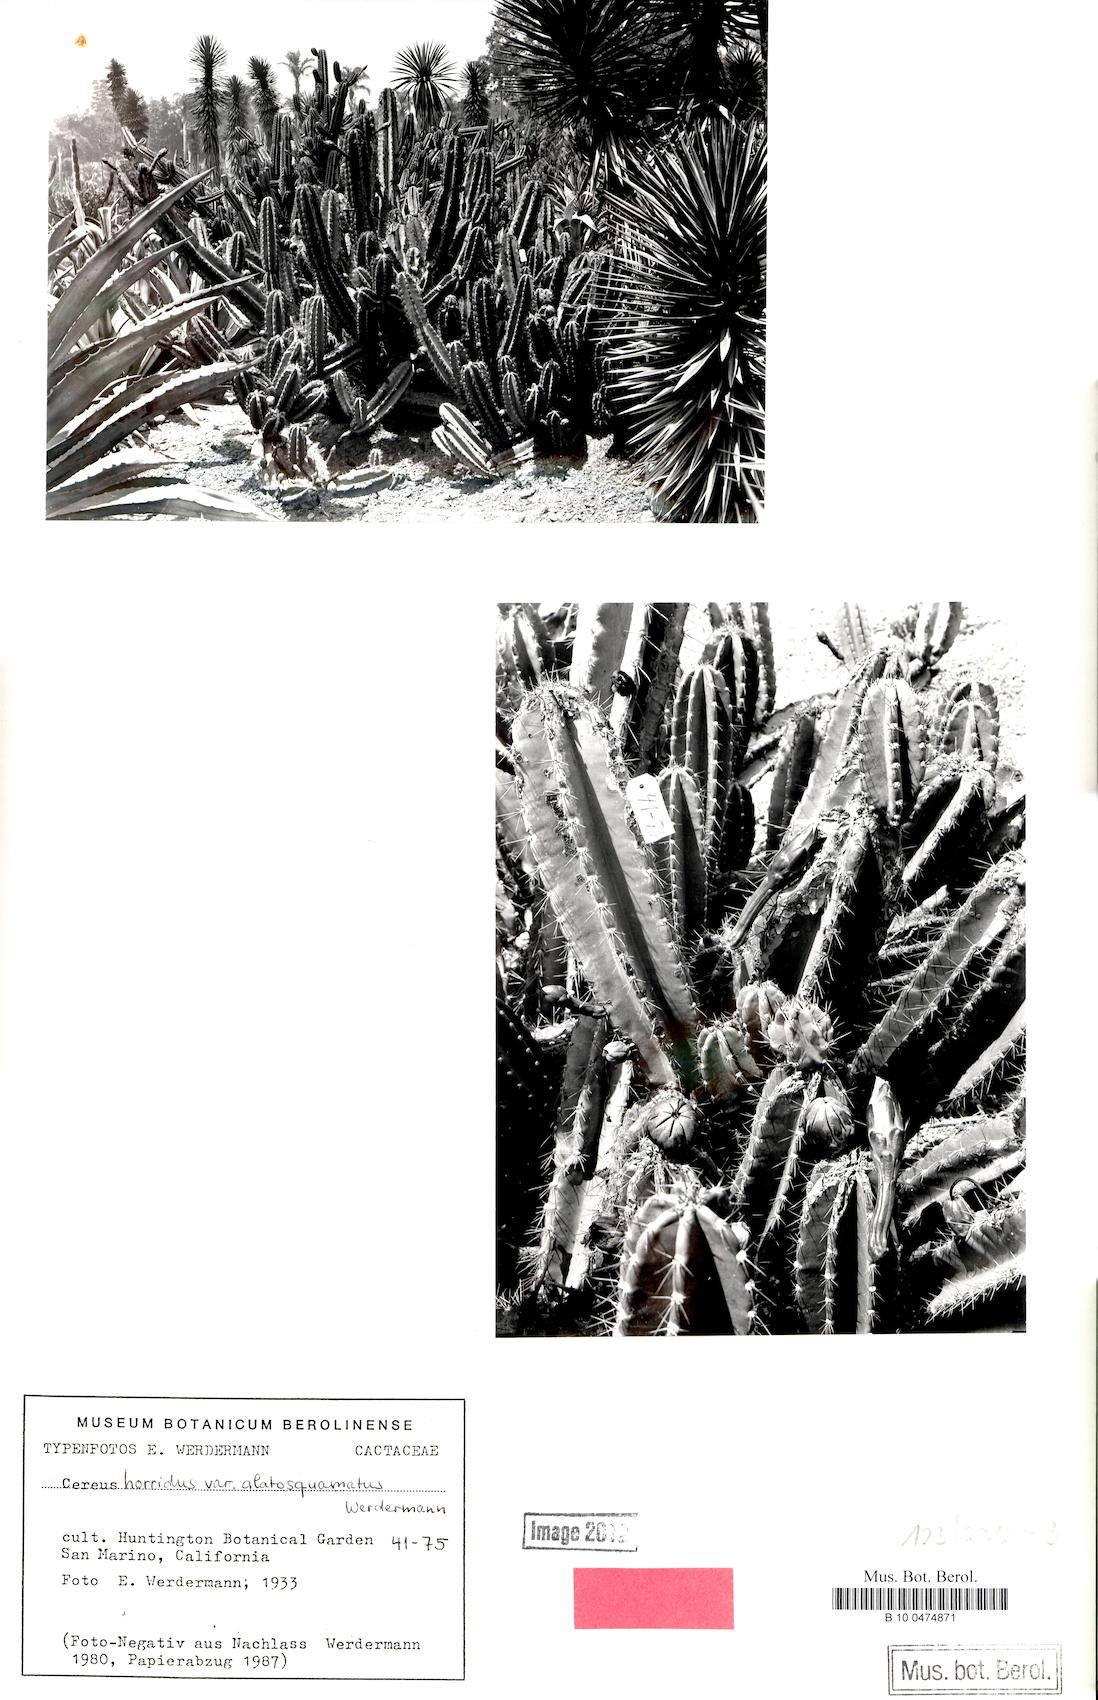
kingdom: Plantae
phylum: Tracheophyta
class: Magnoliopsida
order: Caryophyllales
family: Cactaceae
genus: Cereus
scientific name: Cereus hexagonus
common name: Lady of the night cactus
